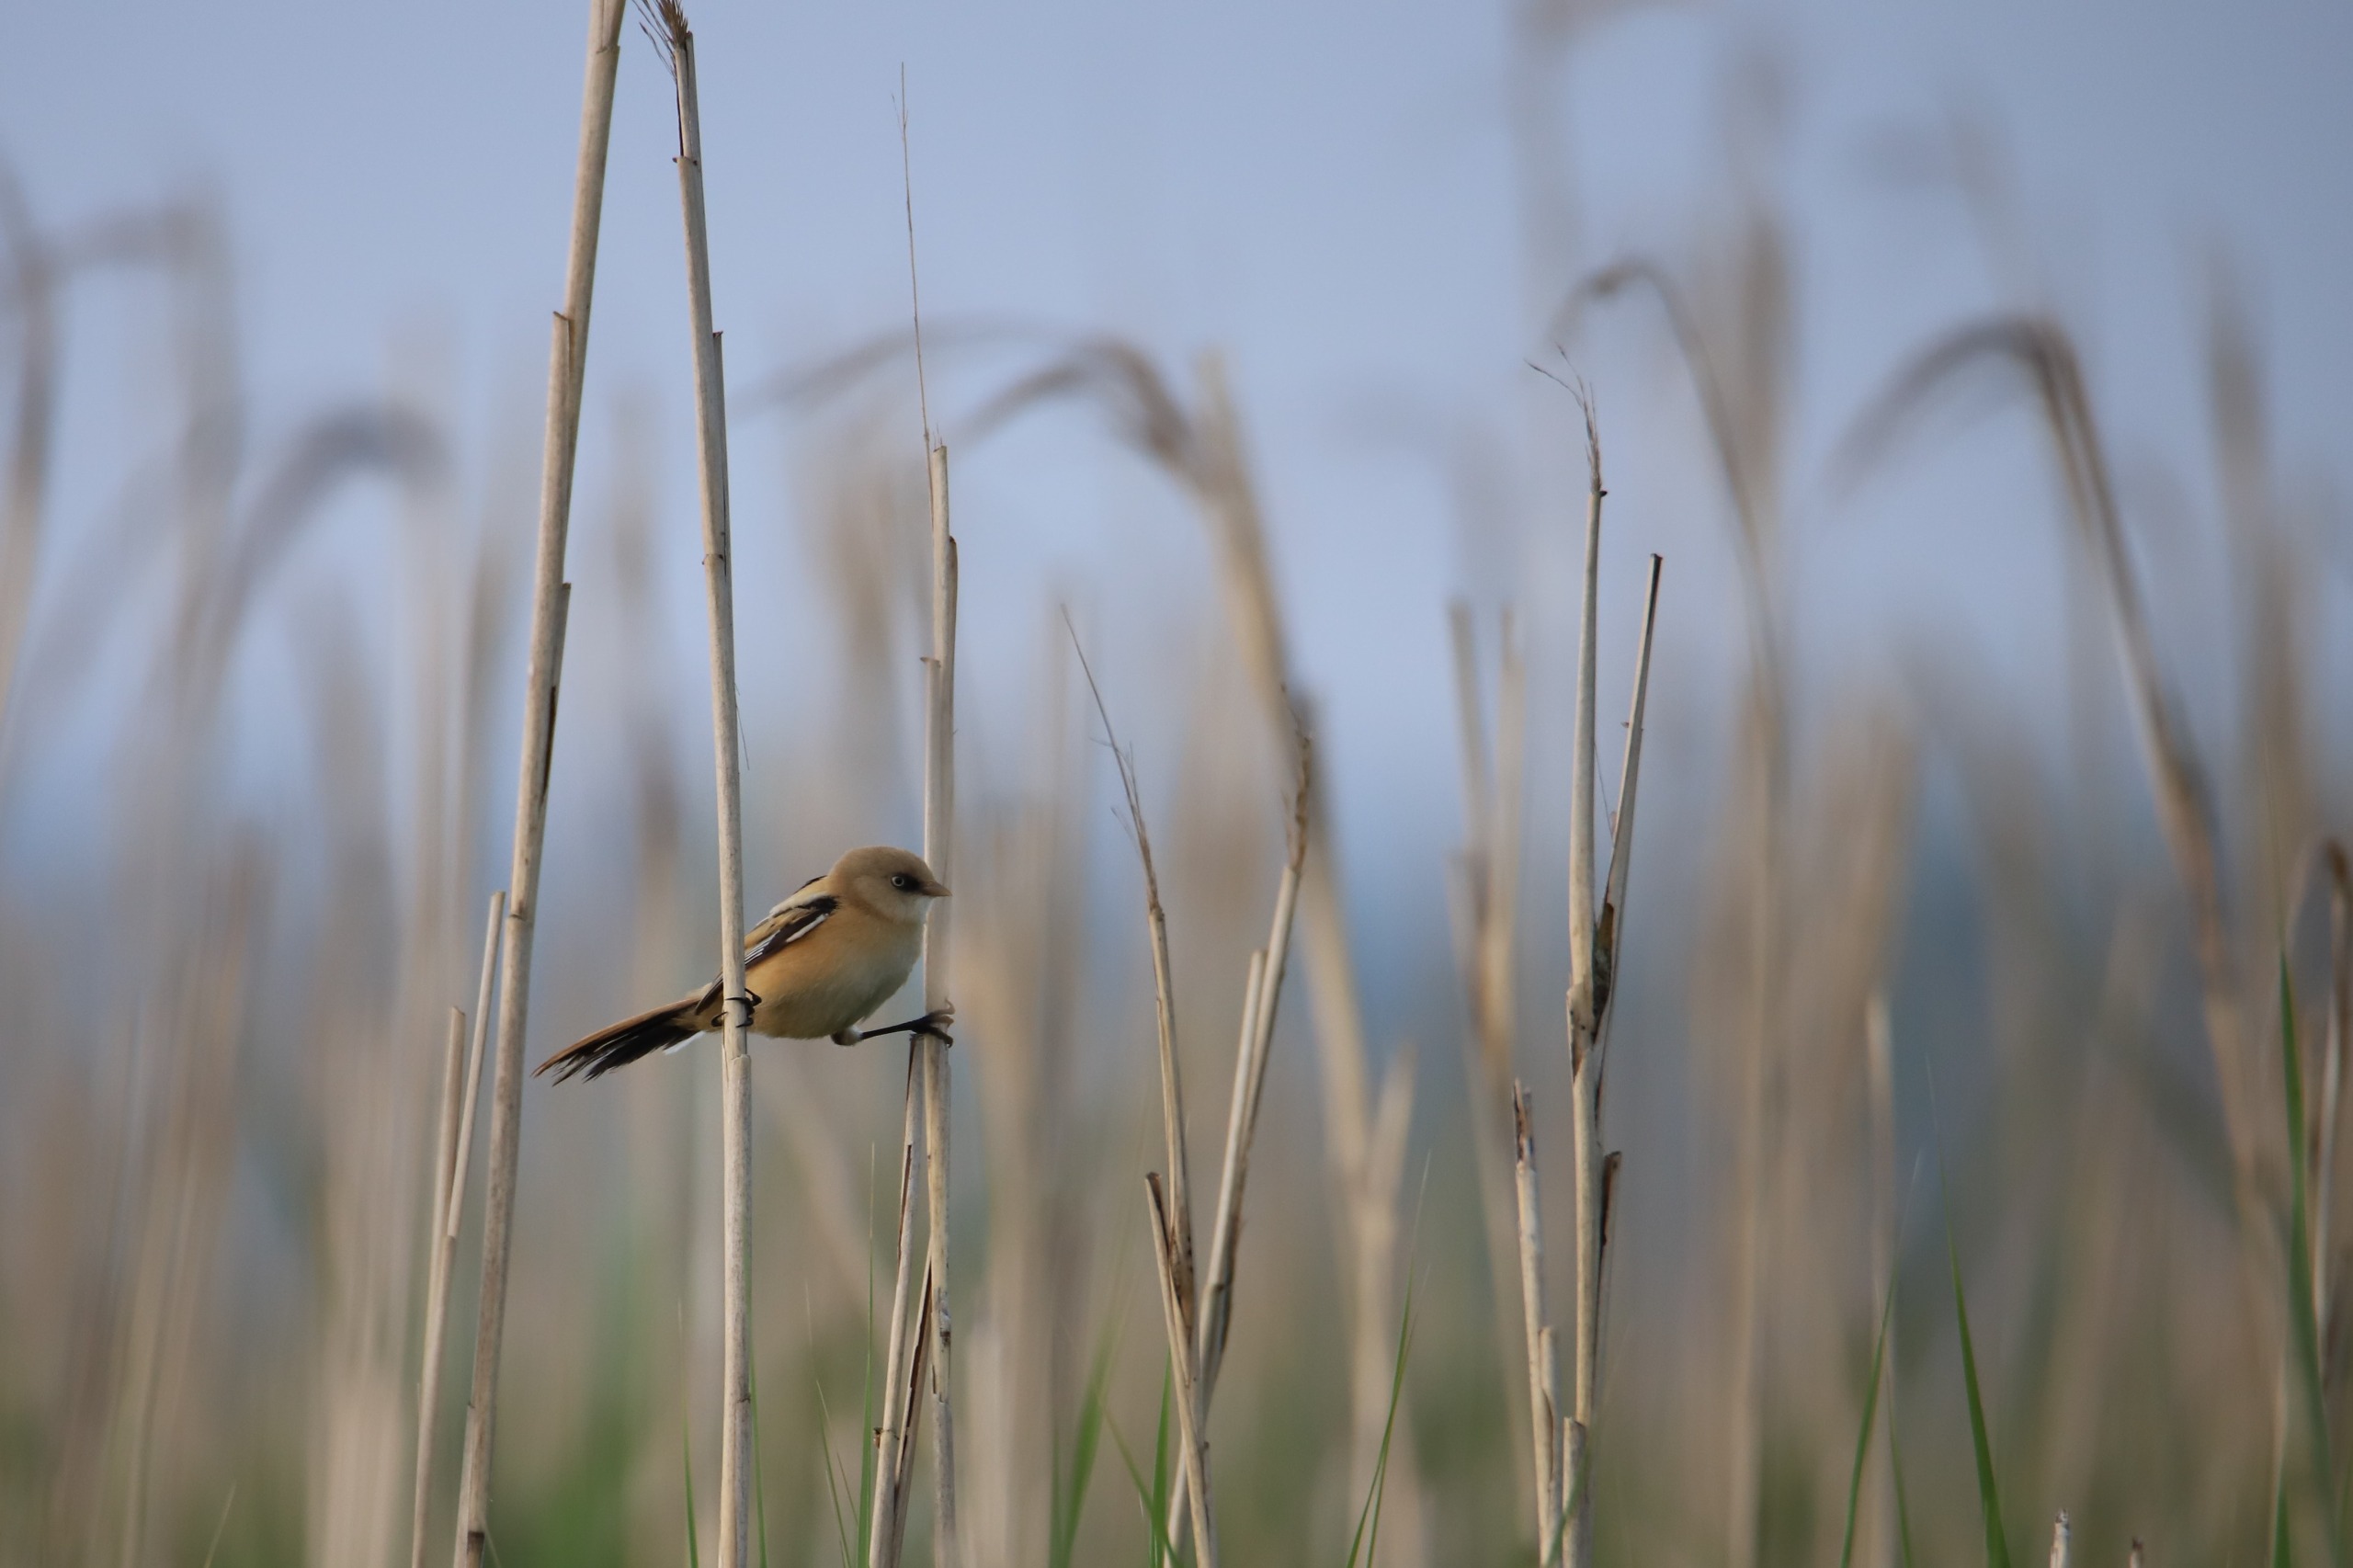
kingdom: Animalia
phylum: Chordata
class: Aves
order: Passeriformes
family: Panuridae
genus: Panurus
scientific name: Panurus biarmicus
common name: Skægmejse
